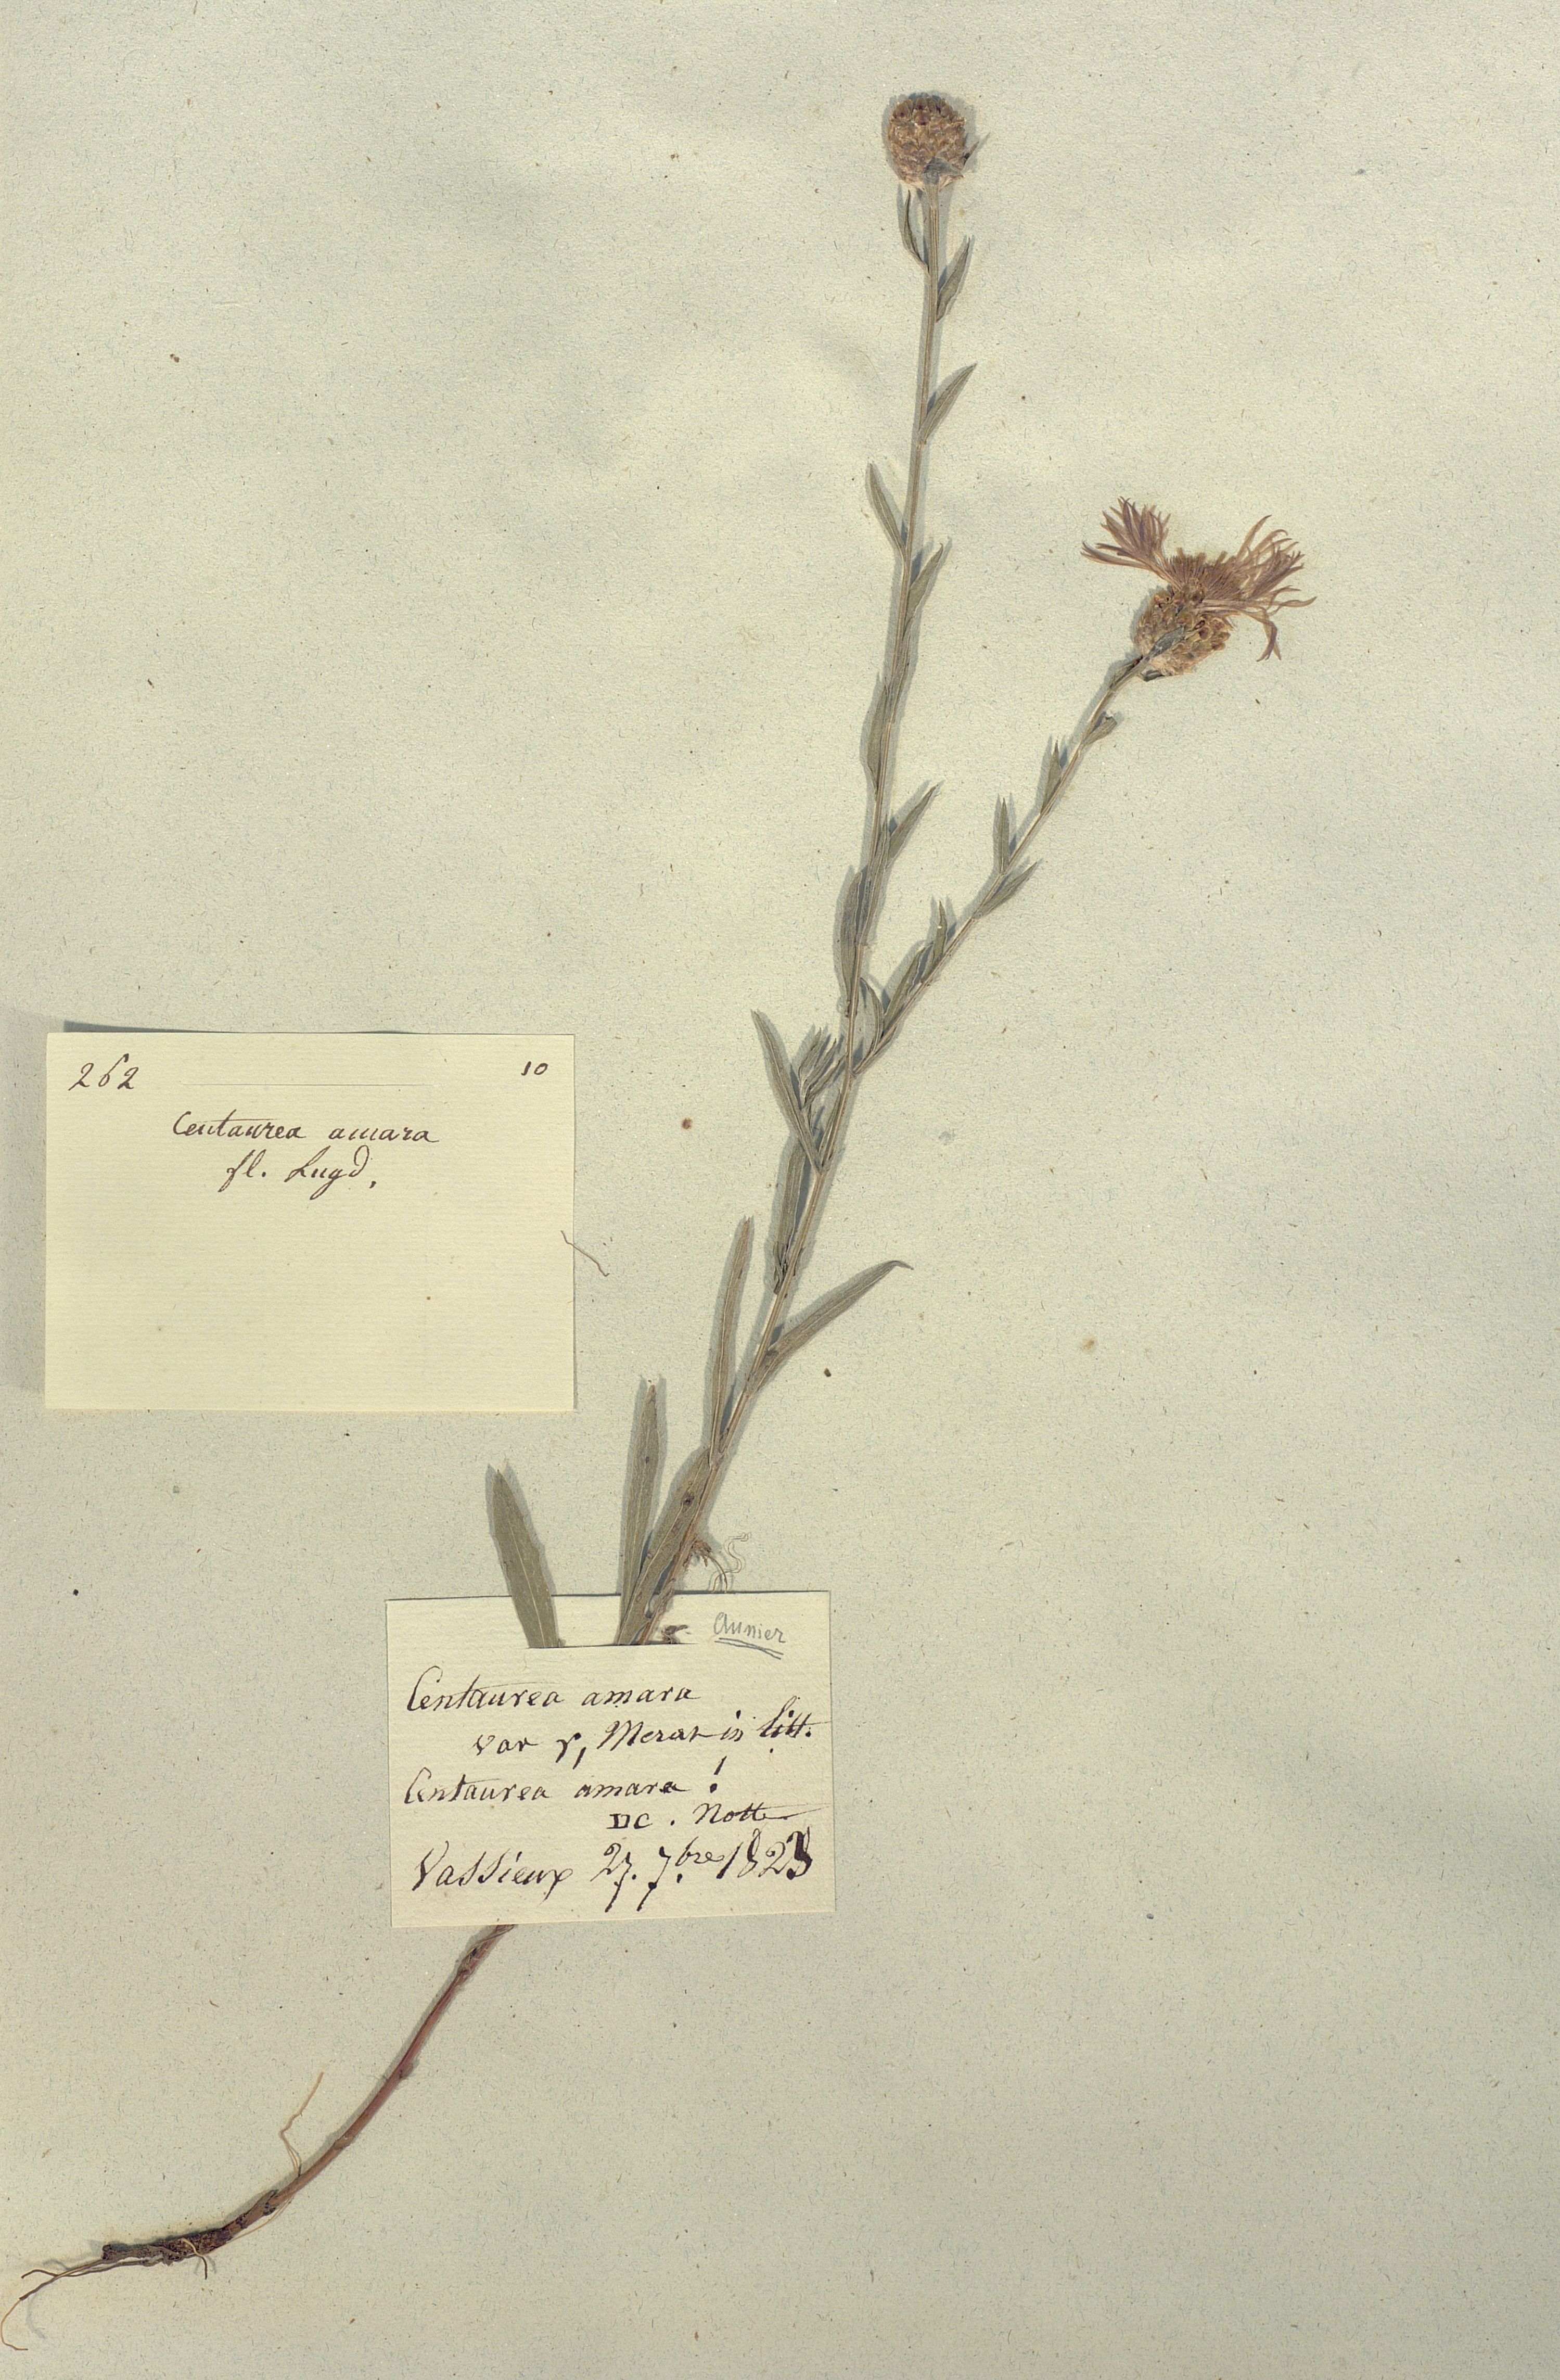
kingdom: Plantae
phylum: Tracheophyta
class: Magnoliopsida
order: Asterales
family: Asteraceae
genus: Centaurea
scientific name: Centaurea jacea
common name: Brown knapweed
